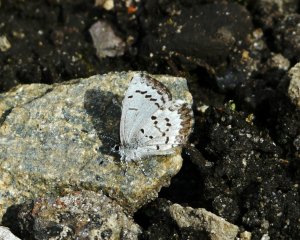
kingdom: Animalia
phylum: Arthropoda
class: Insecta
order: Lepidoptera
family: Lycaenidae
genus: Celastrina
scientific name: Celastrina ladon
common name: Spring Azure
